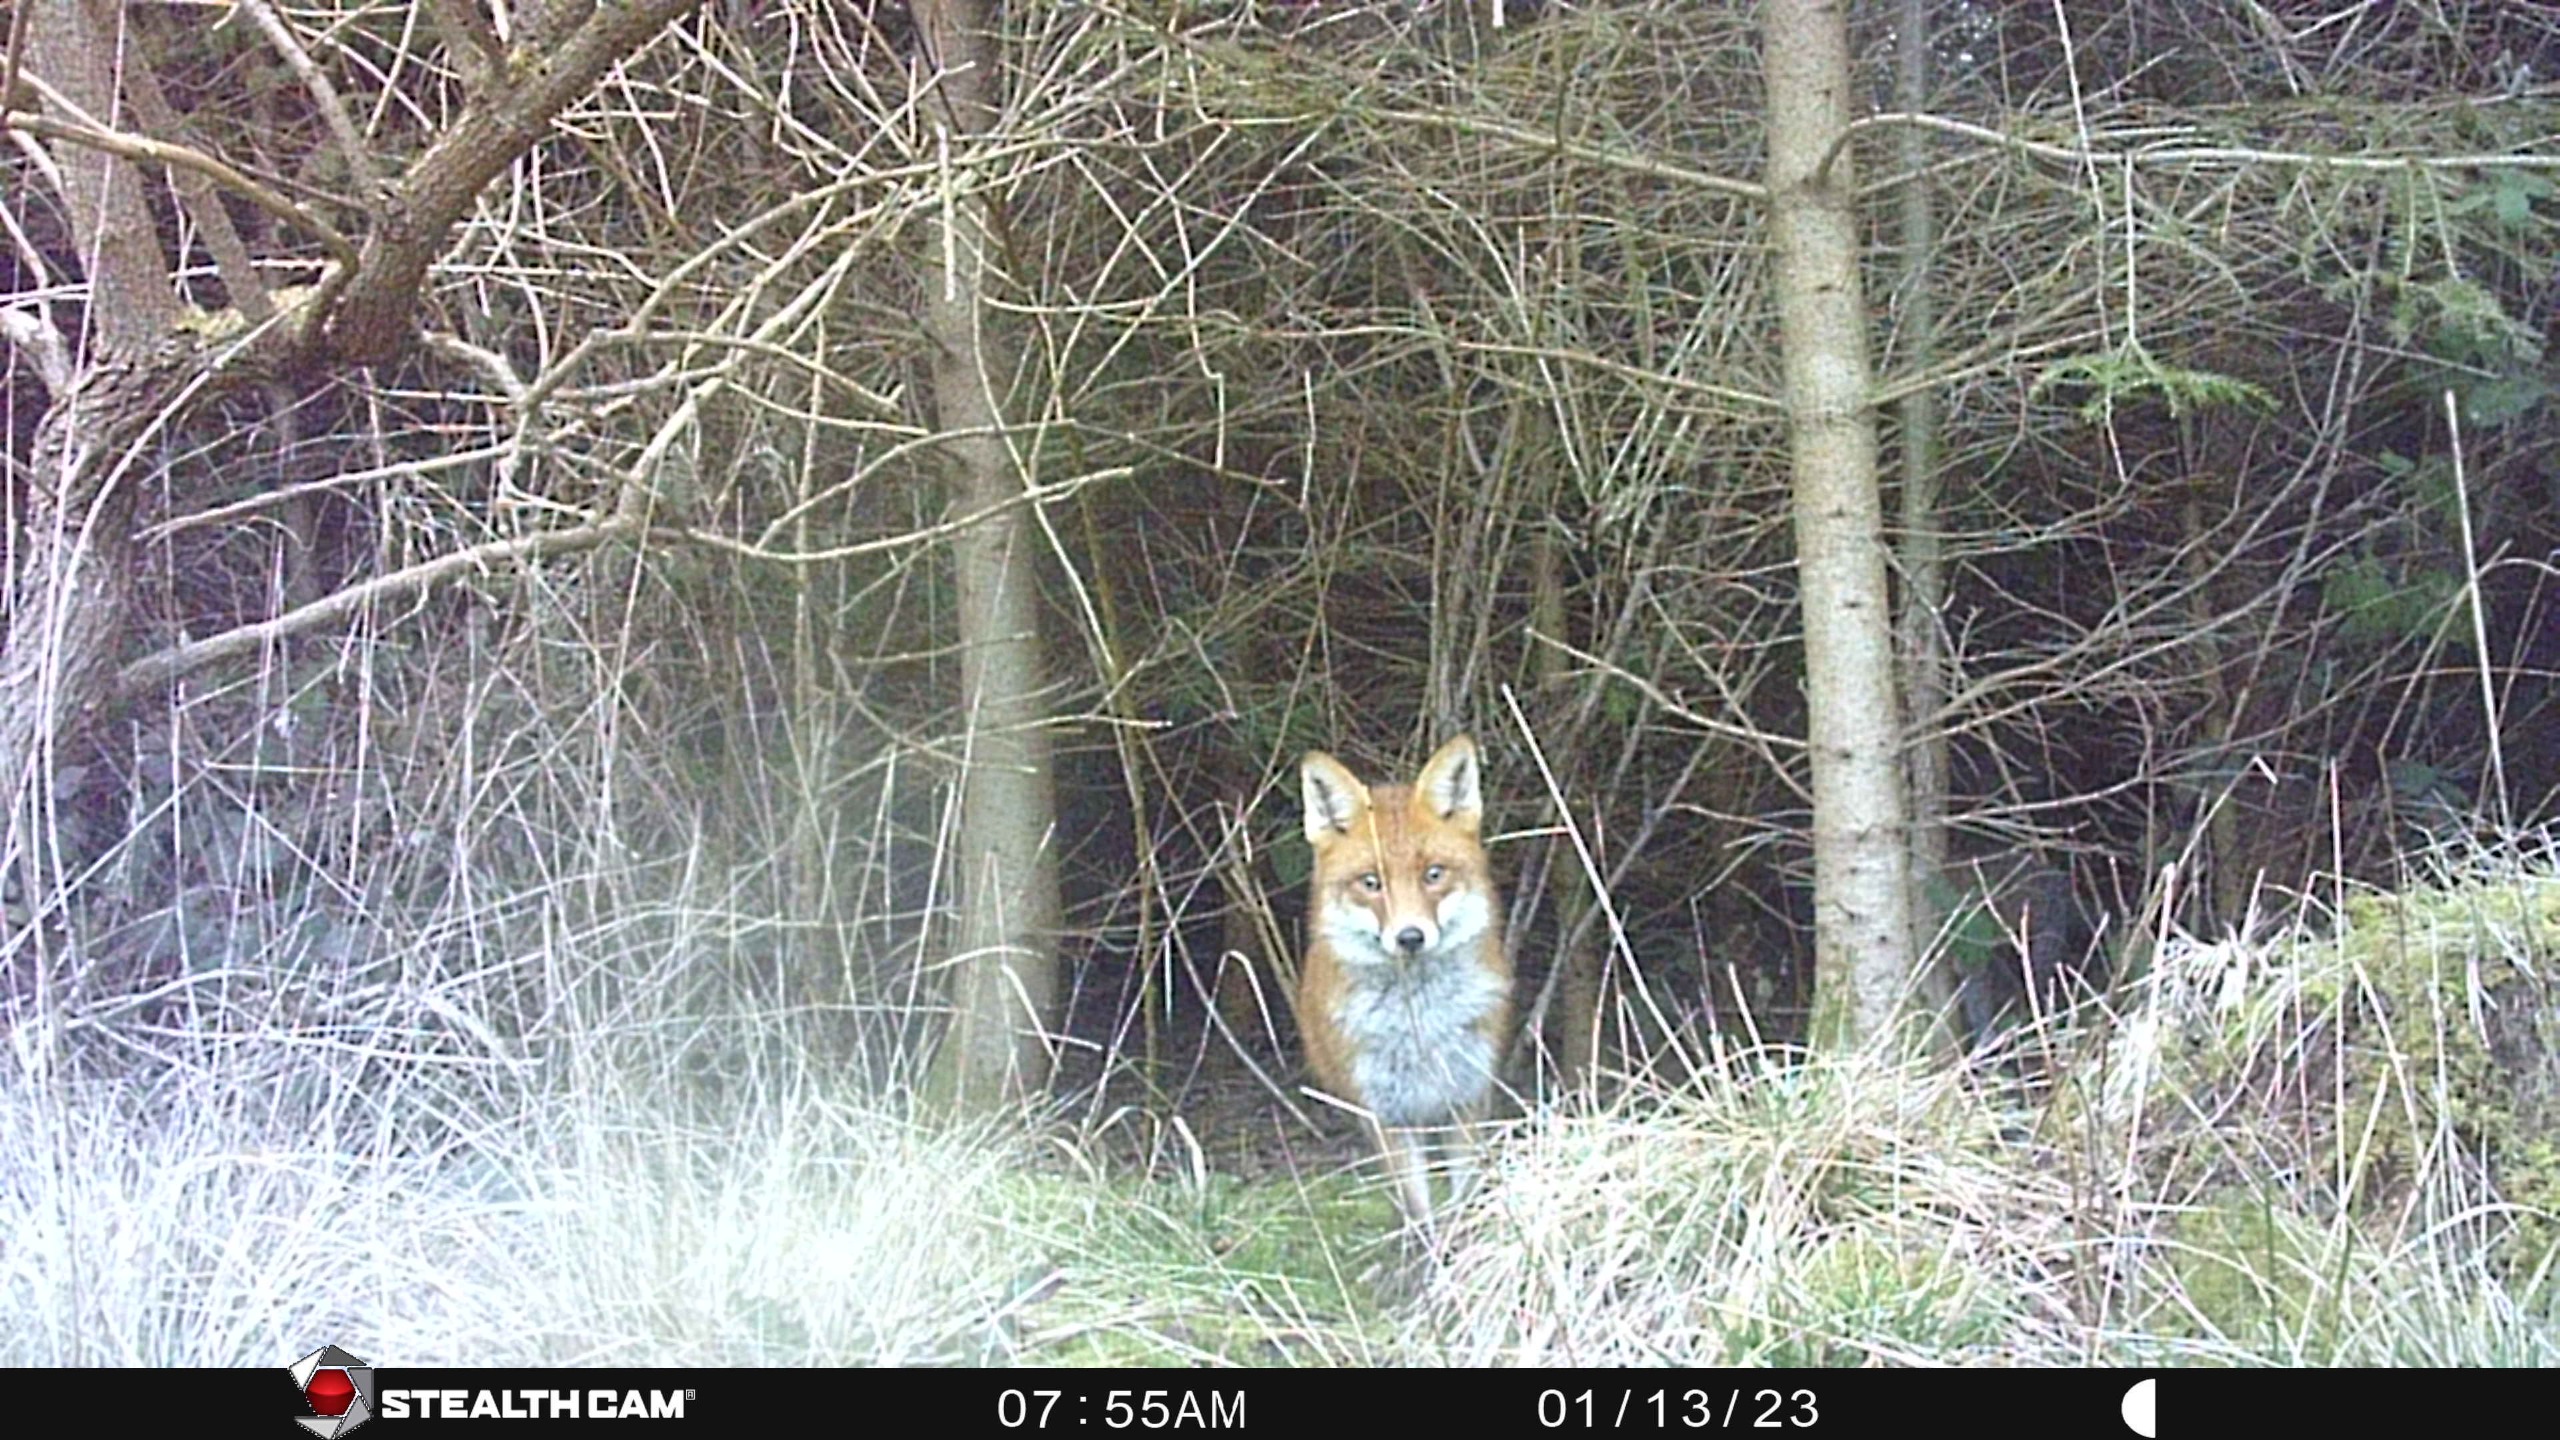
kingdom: Animalia
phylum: Chordata
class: Mammalia
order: Carnivora
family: Canidae
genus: Vulpes
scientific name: Vulpes vulpes
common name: Ræv
